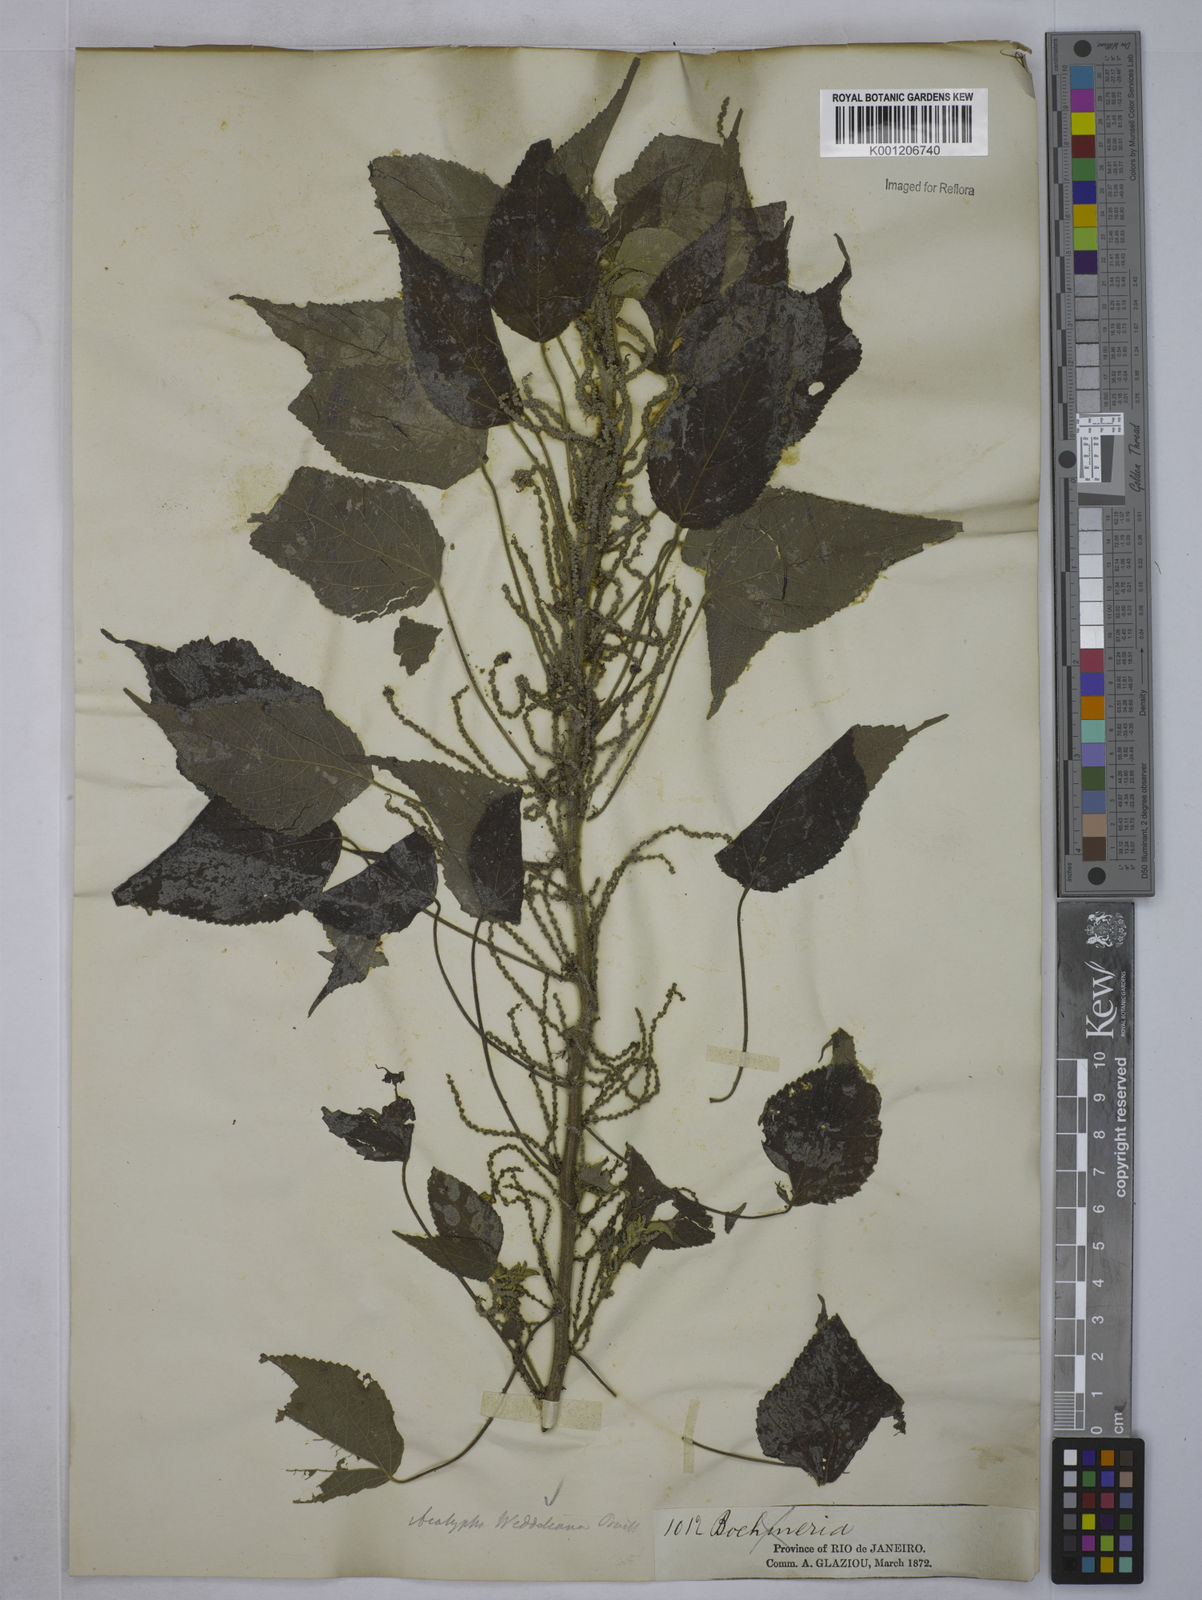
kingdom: Plantae
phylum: Tracheophyta
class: Magnoliopsida
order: Malpighiales
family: Euphorbiaceae
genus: Acalypha
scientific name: Acalypha weddelliana
